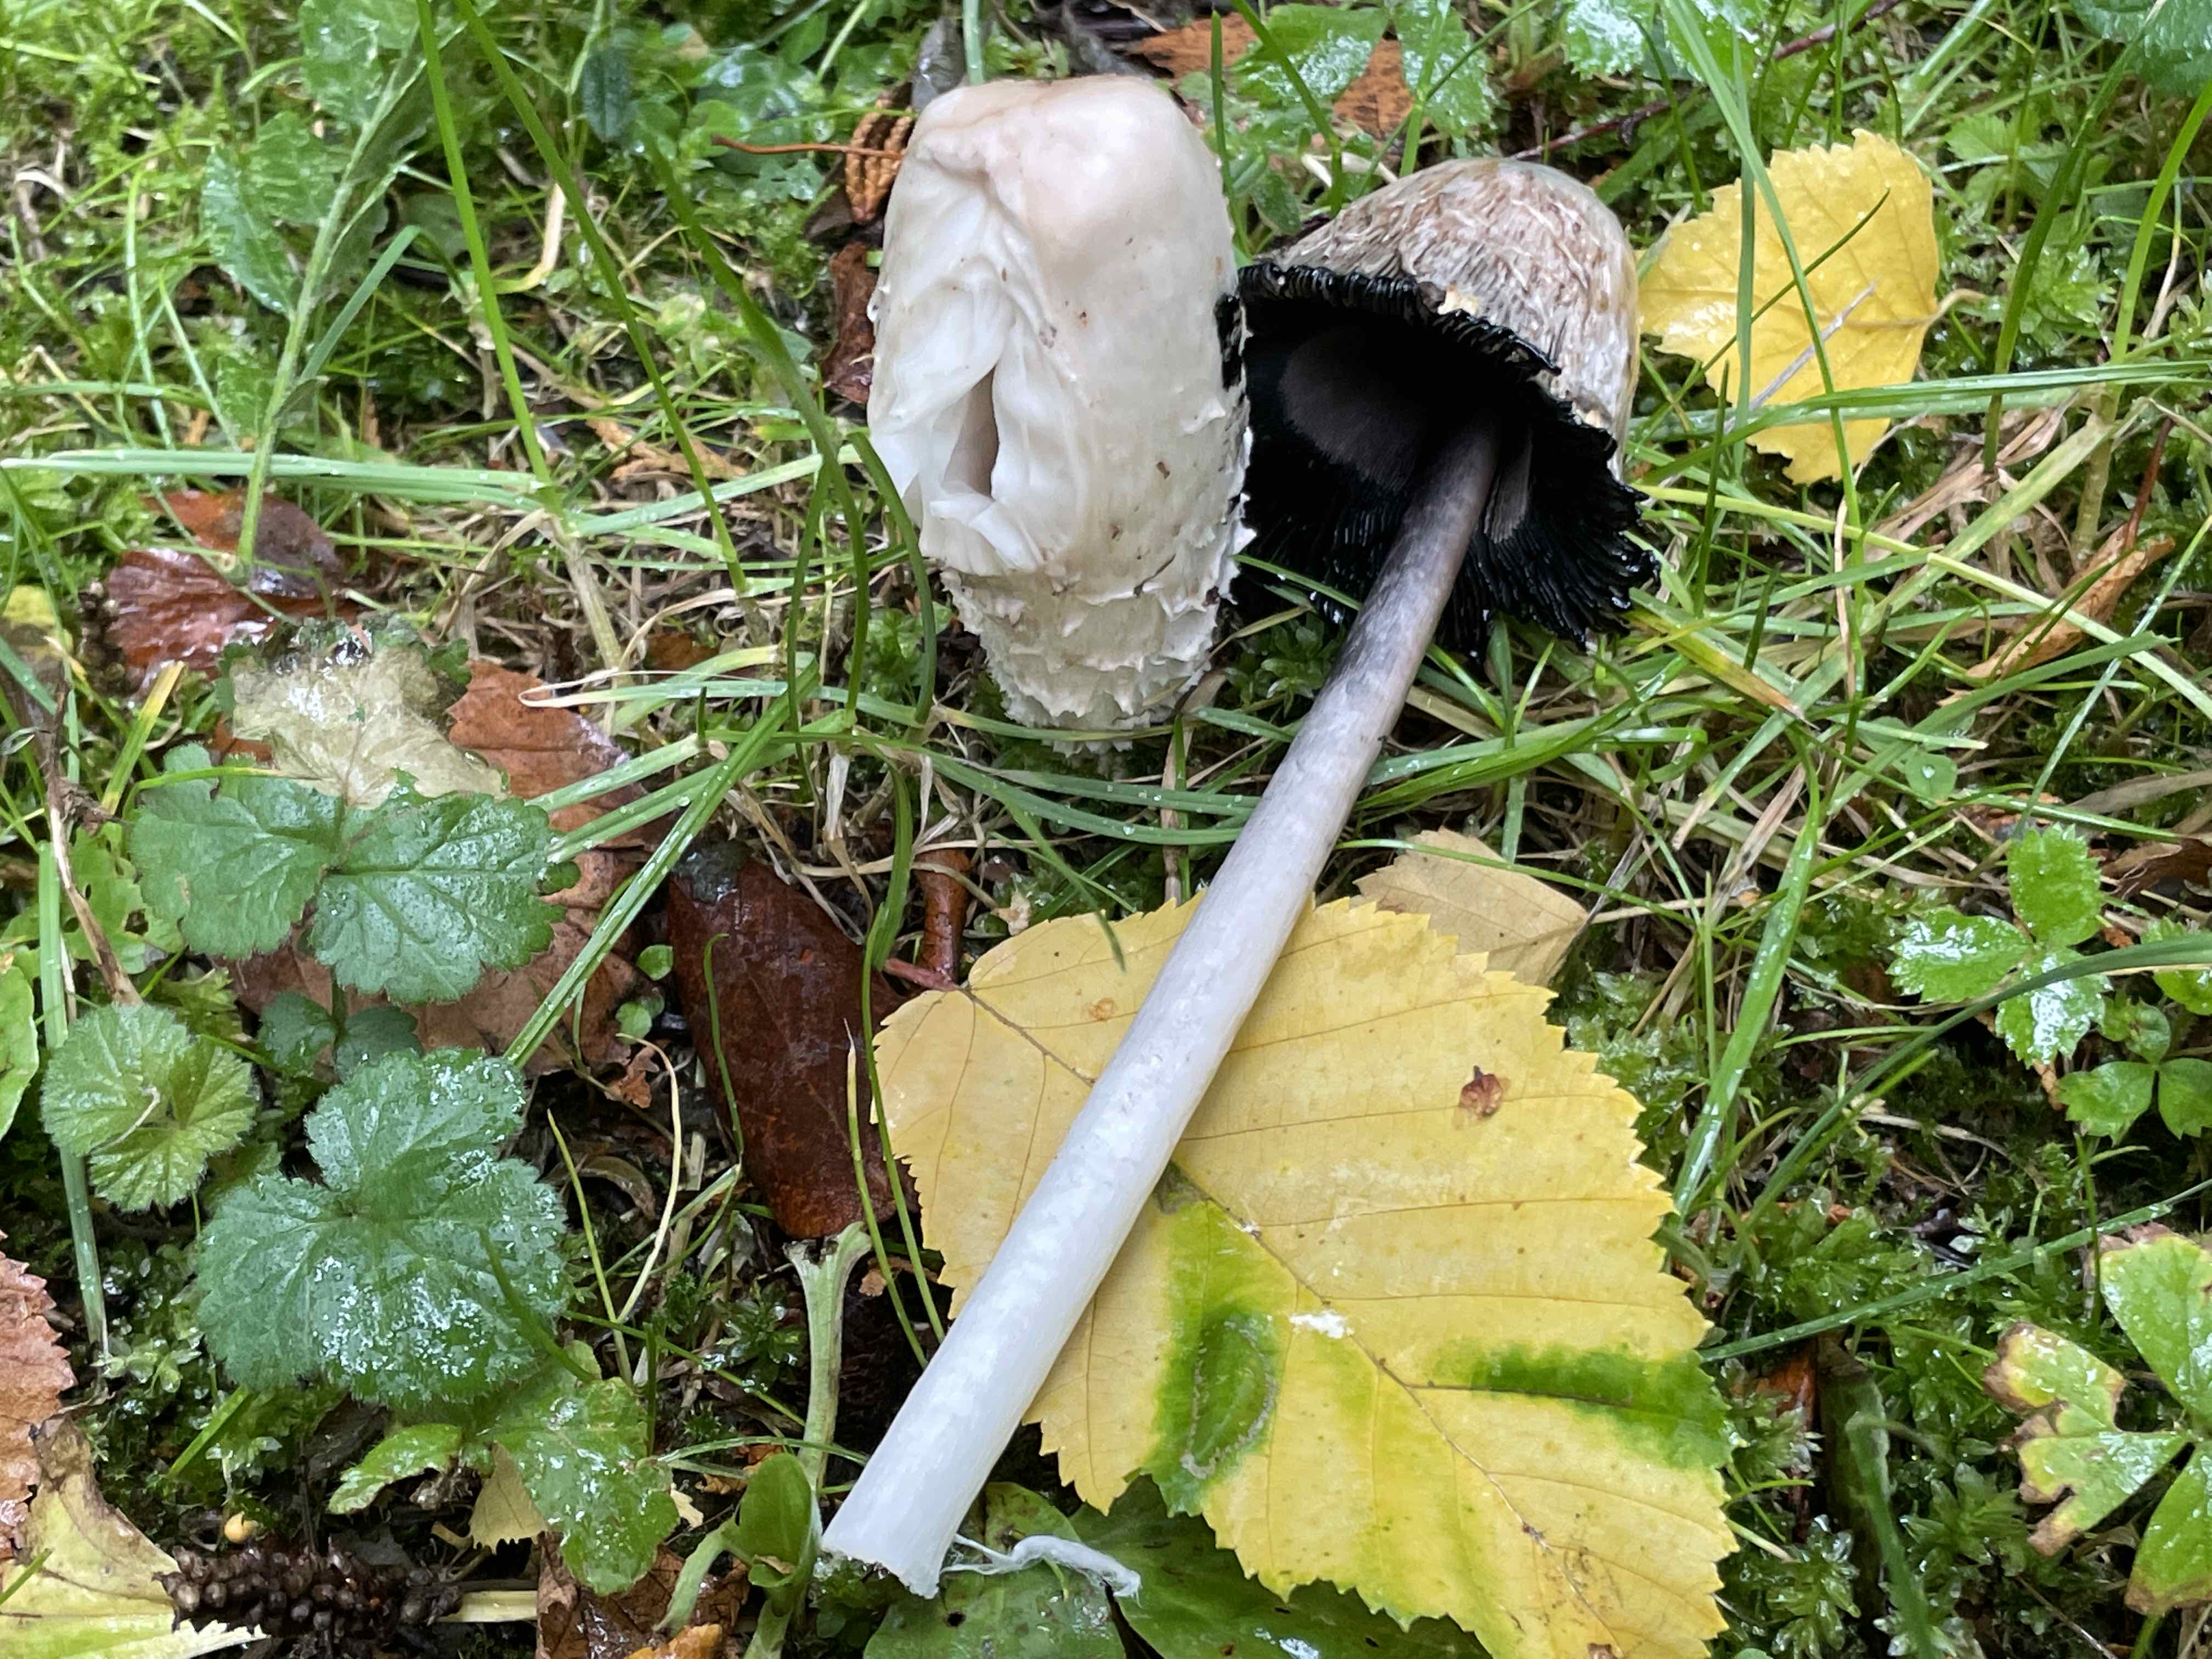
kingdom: Fungi
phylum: Basidiomycota
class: Agaricomycetes
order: Agaricales
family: Agaricaceae
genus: Coprinus
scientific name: Coprinus comatus
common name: stor parykhat
